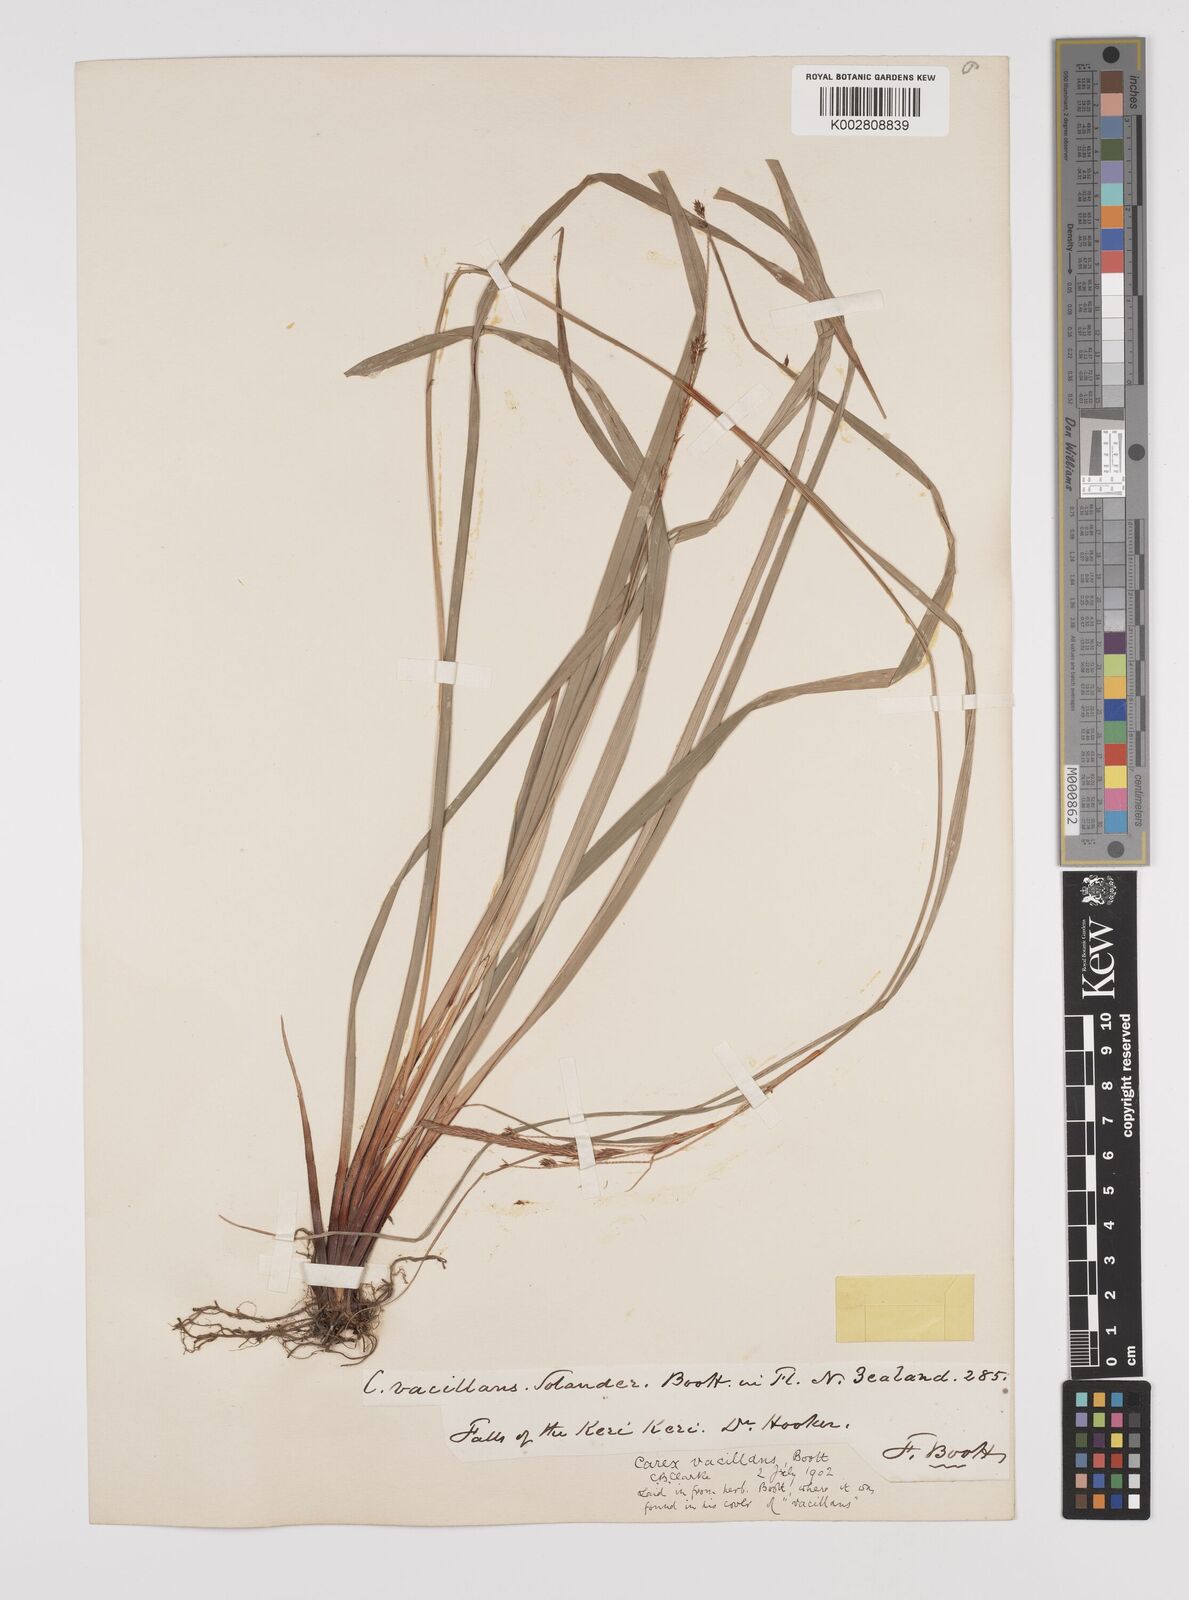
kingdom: Plantae
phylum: Tracheophyta
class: Liliopsida
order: Poales
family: Cyperaceae
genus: Carex
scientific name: Carex spinirostris
